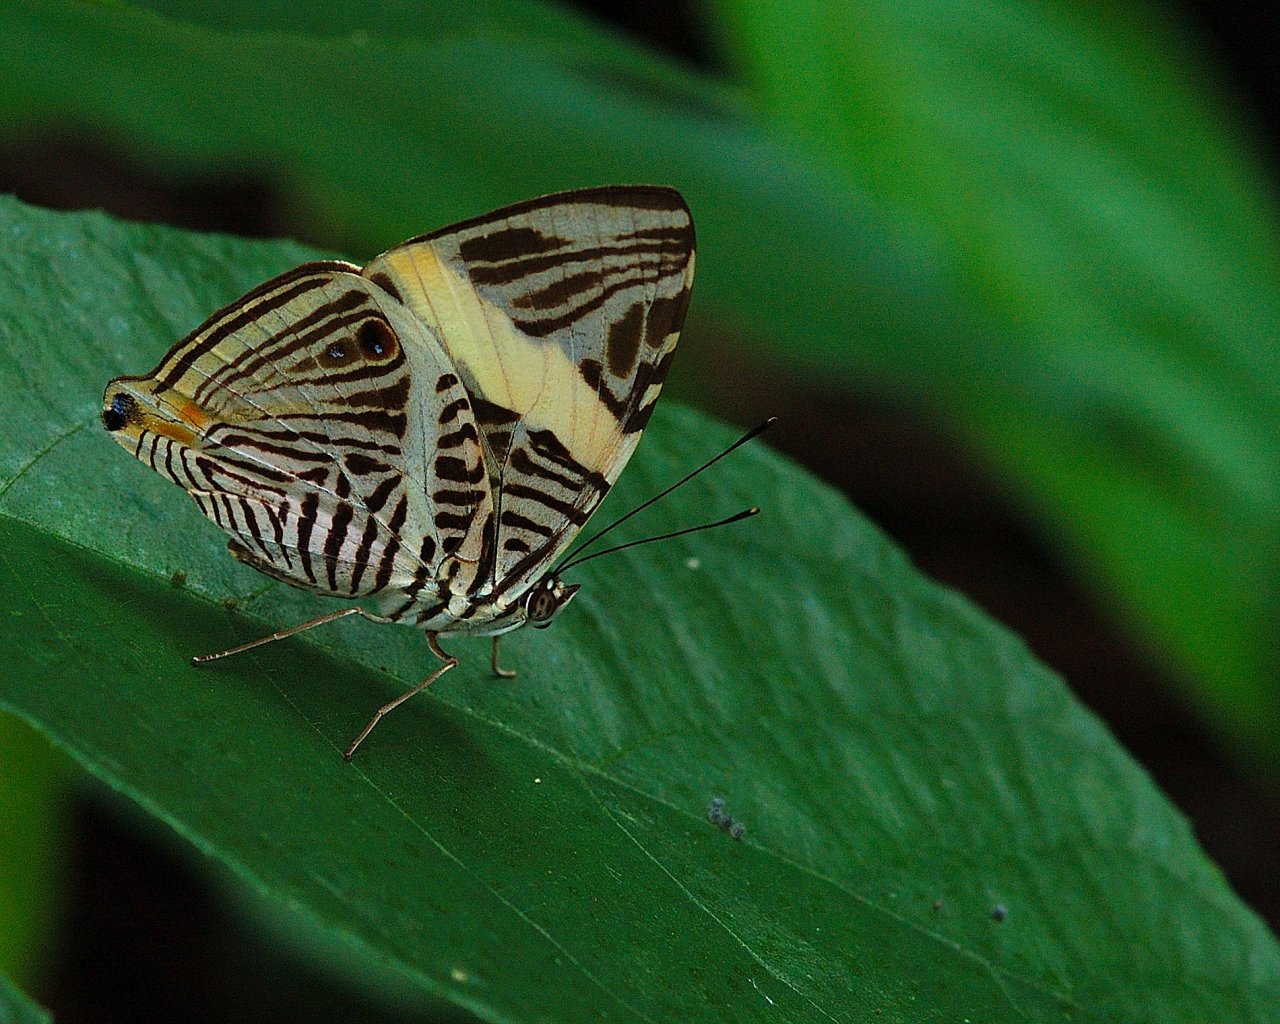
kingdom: Animalia
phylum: Arthropoda
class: Insecta
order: Lepidoptera
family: Nymphalidae
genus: Colobura
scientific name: Colobura dirce
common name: Dirce Beauty
